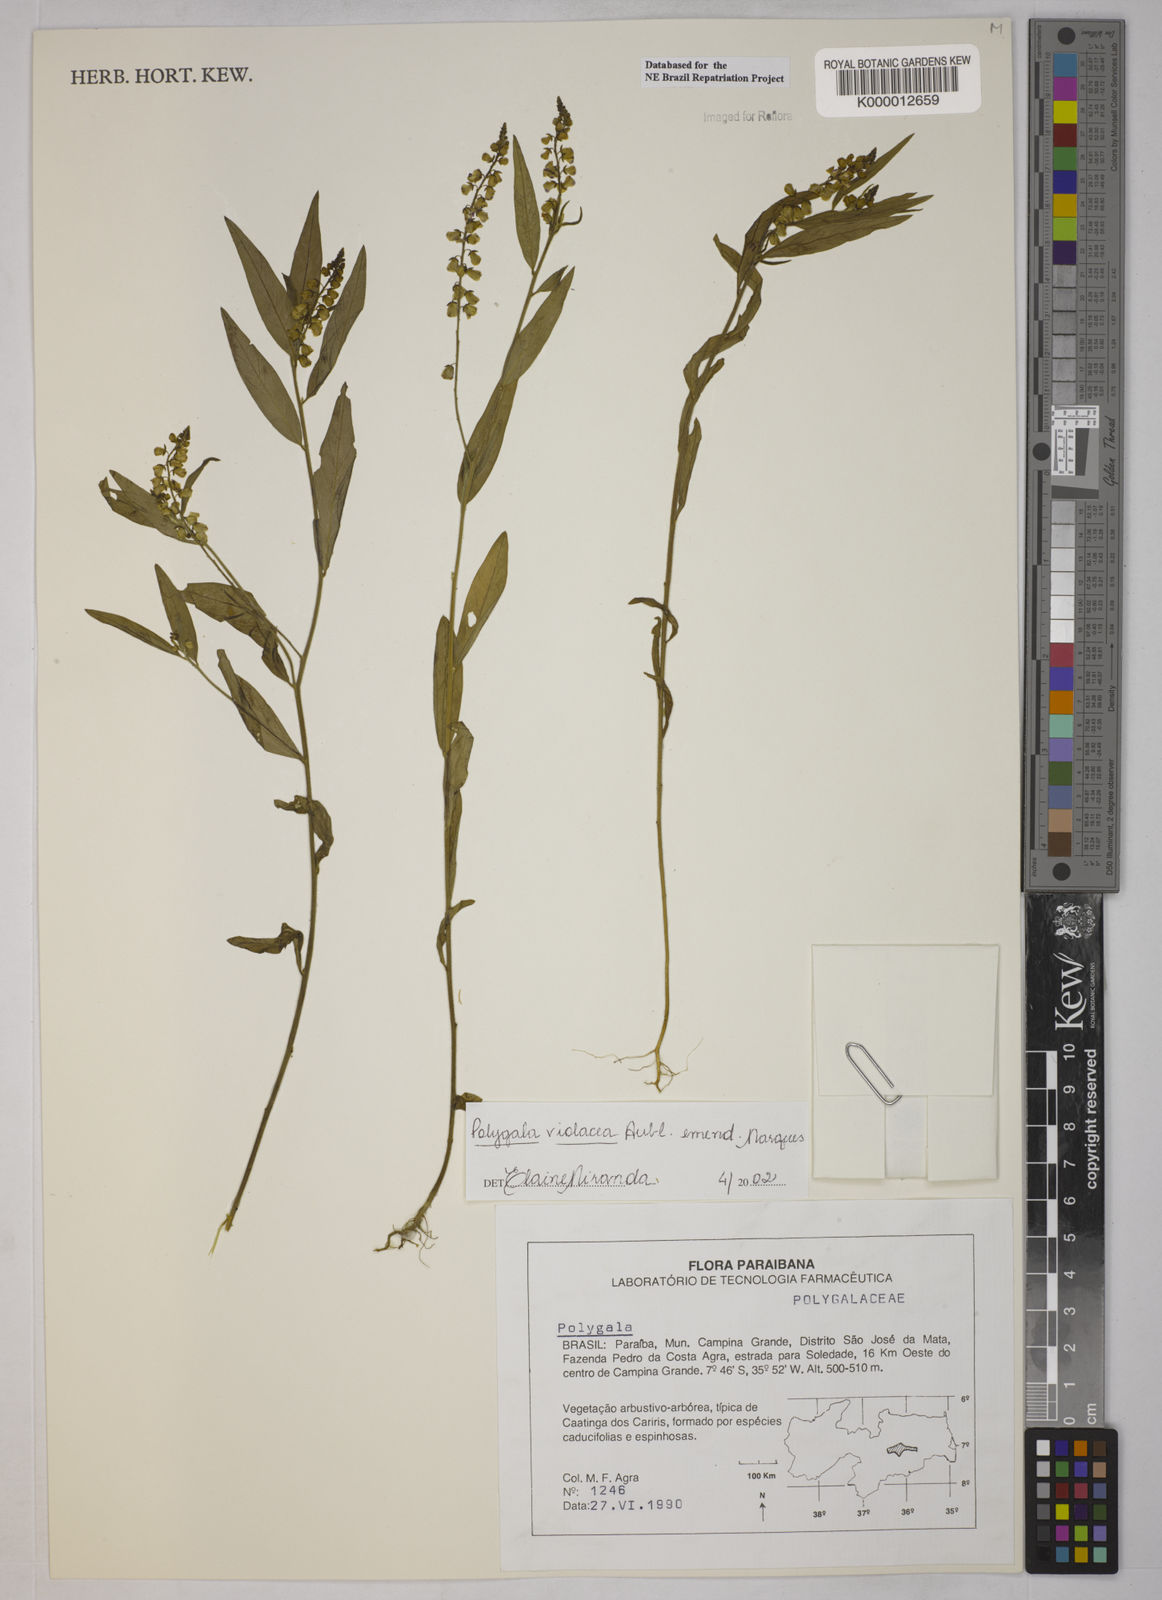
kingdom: Plantae
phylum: Tracheophyta
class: Magnoliopsida
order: Fabales
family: Polygalaceae
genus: Asemeia
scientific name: Asemeia violacea
